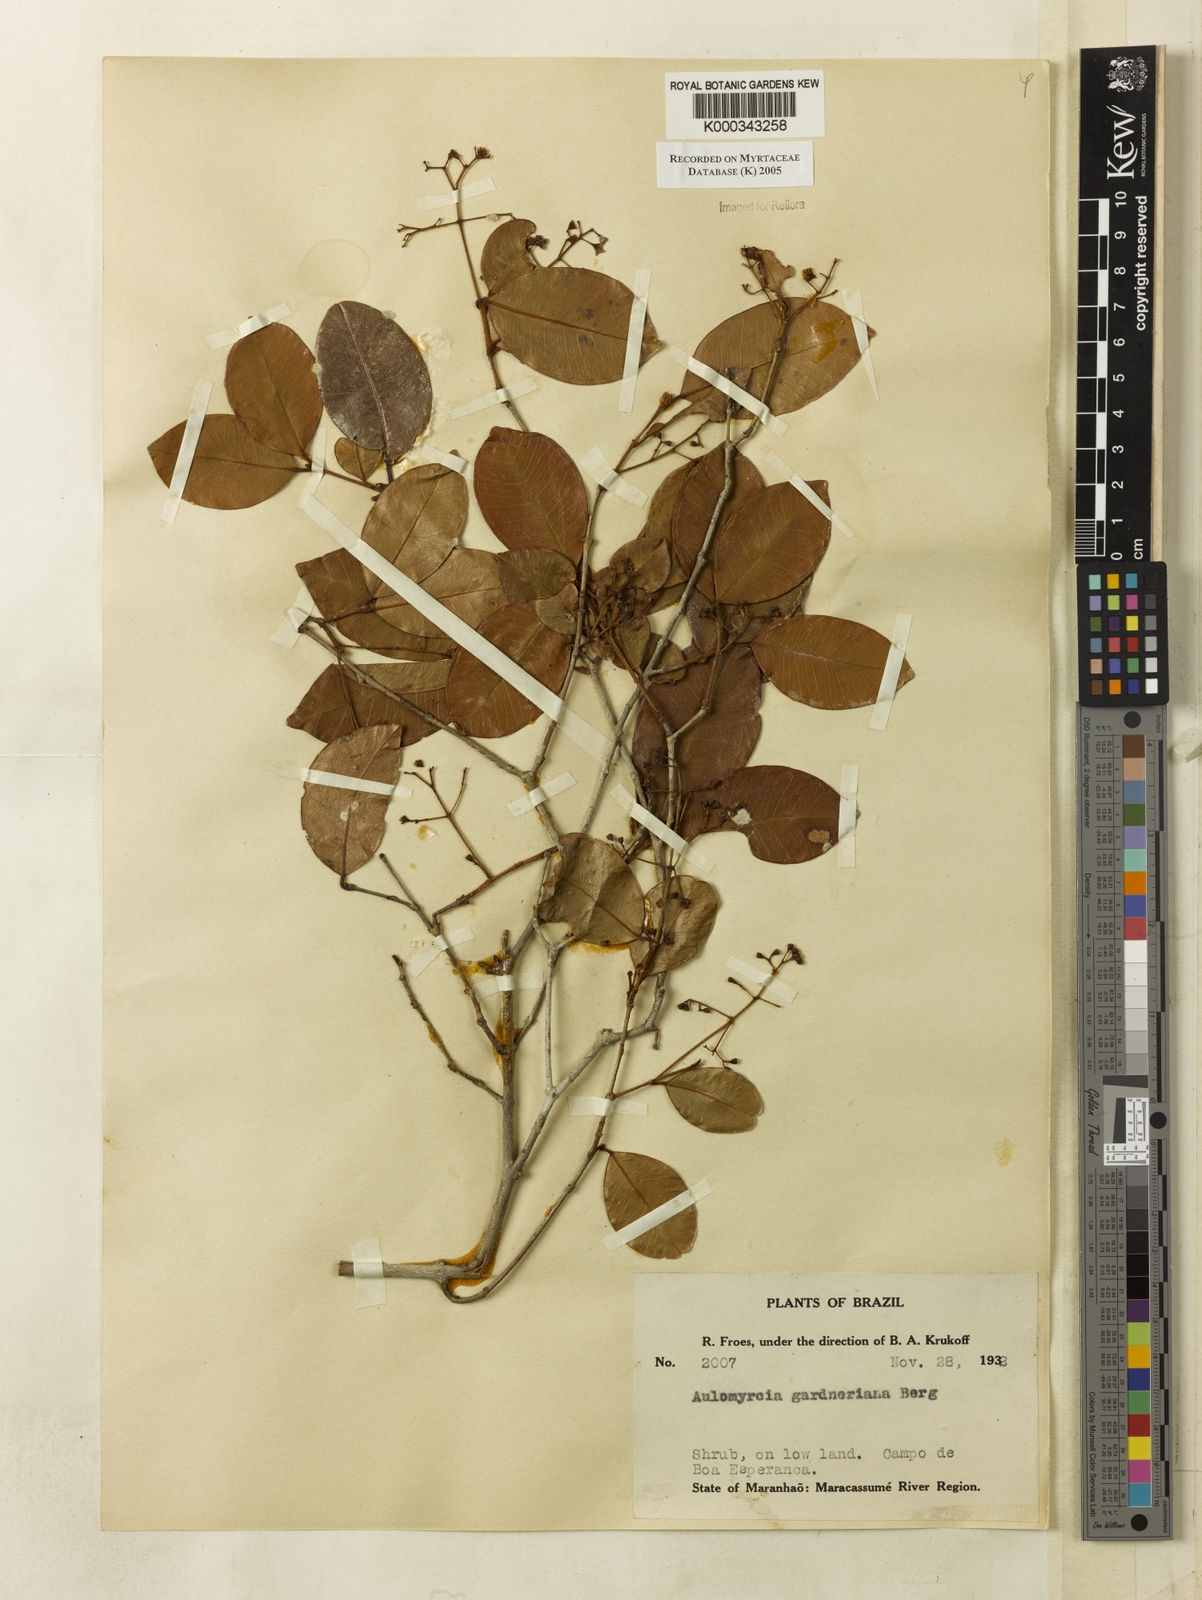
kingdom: Plantae
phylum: Tracheophyta
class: Magnoliopsida
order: Myrtales
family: Myrtaceae
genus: Myrcia
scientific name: Myrcia guianensis
